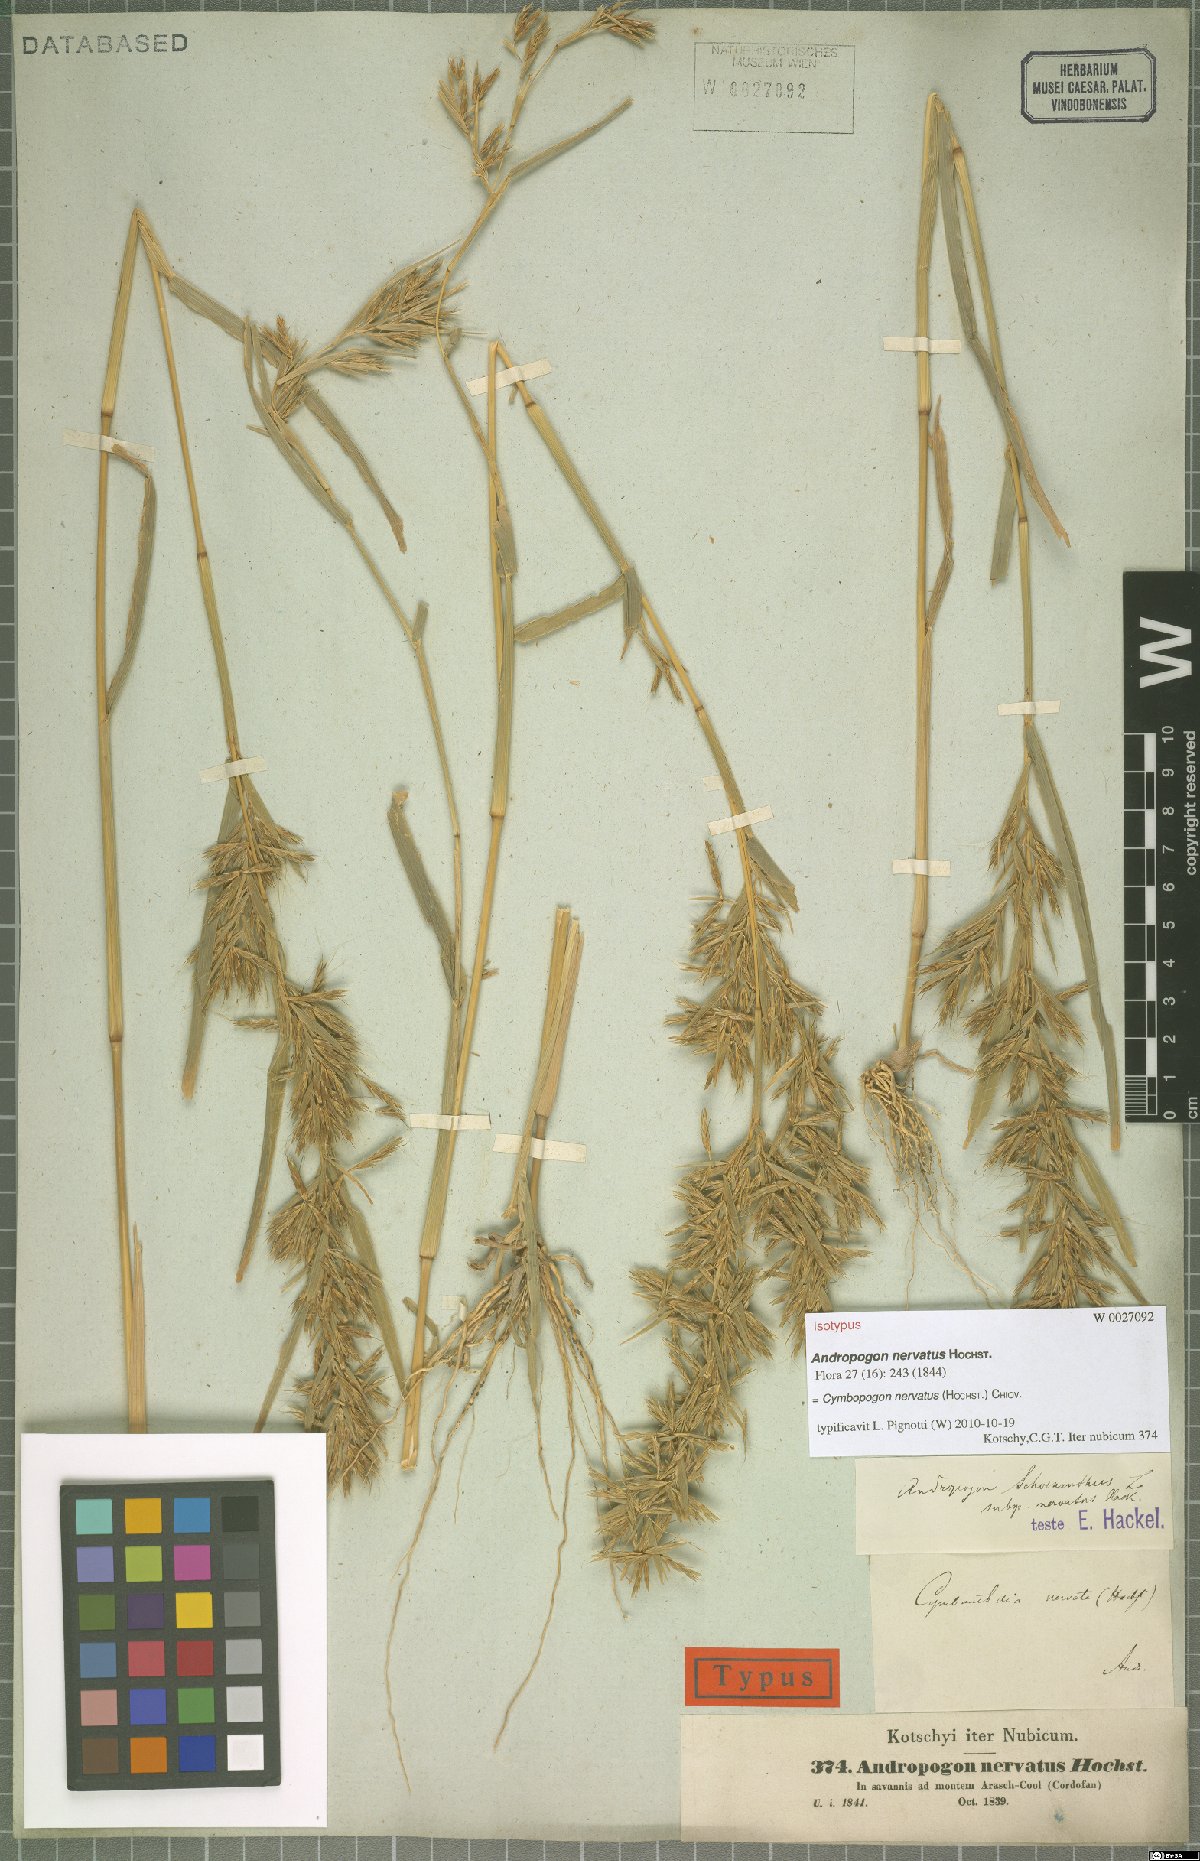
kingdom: Plantae
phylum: Tracheophyta
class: Liliopsida
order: Poales
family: Poaceae
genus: Cymbopogon
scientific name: Cymbopogon nervatus
